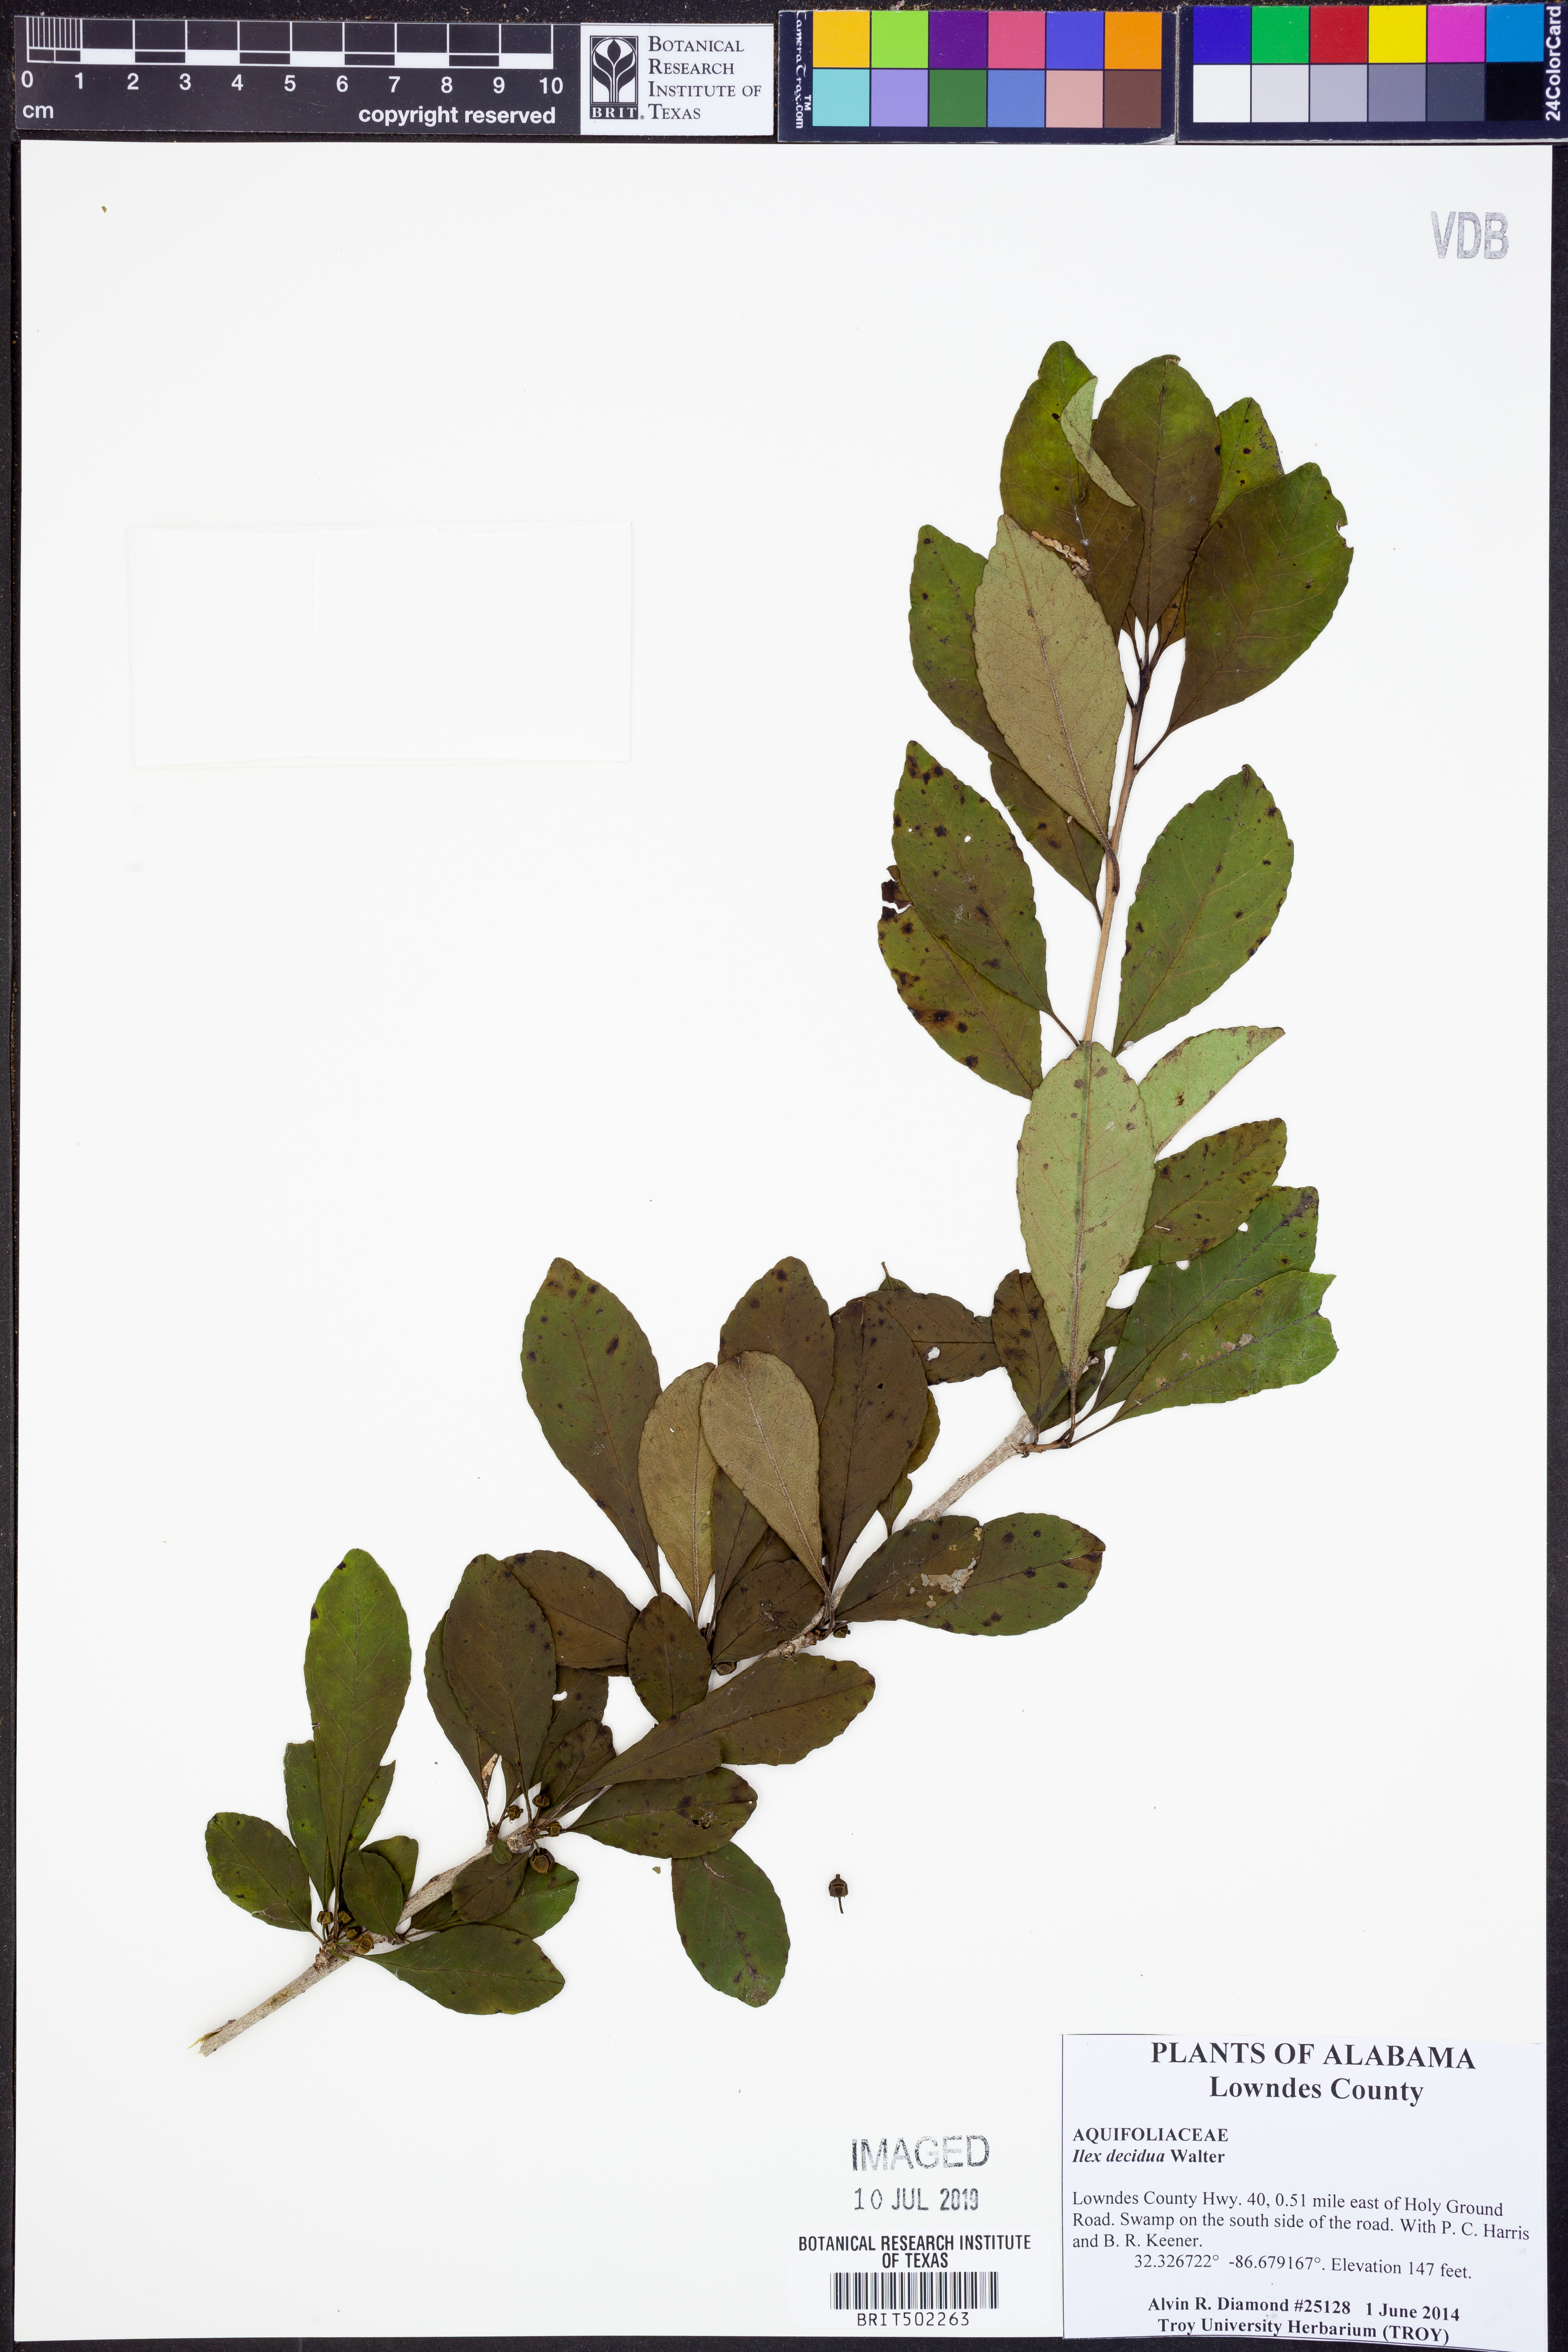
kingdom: Plantae
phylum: Tracheophyta
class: Magnoliopsida
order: Aquifoliales
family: Aquifoliaceae
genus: Ilex
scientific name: Ilex decidua
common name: Possum-haw
